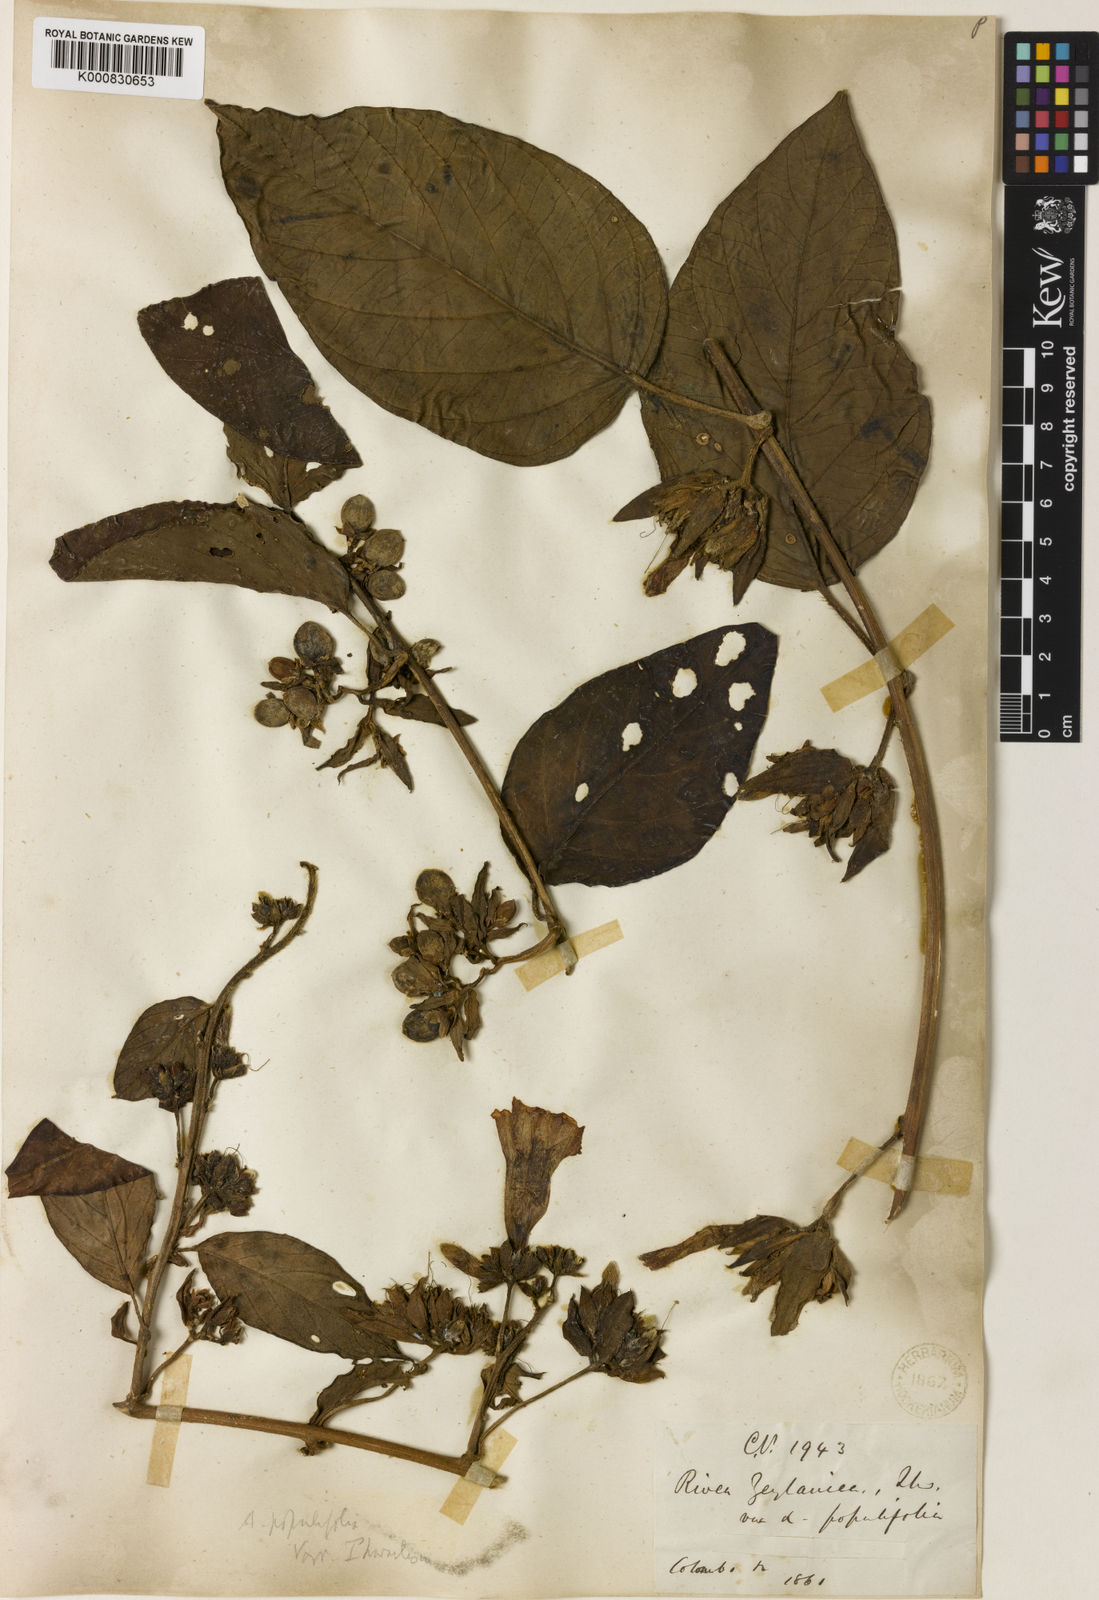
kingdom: Plantae
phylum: Tracheophyta
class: Magnoliopsida
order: Solanales
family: Convolvulaceae
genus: Argyreia
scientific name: Argyreia
